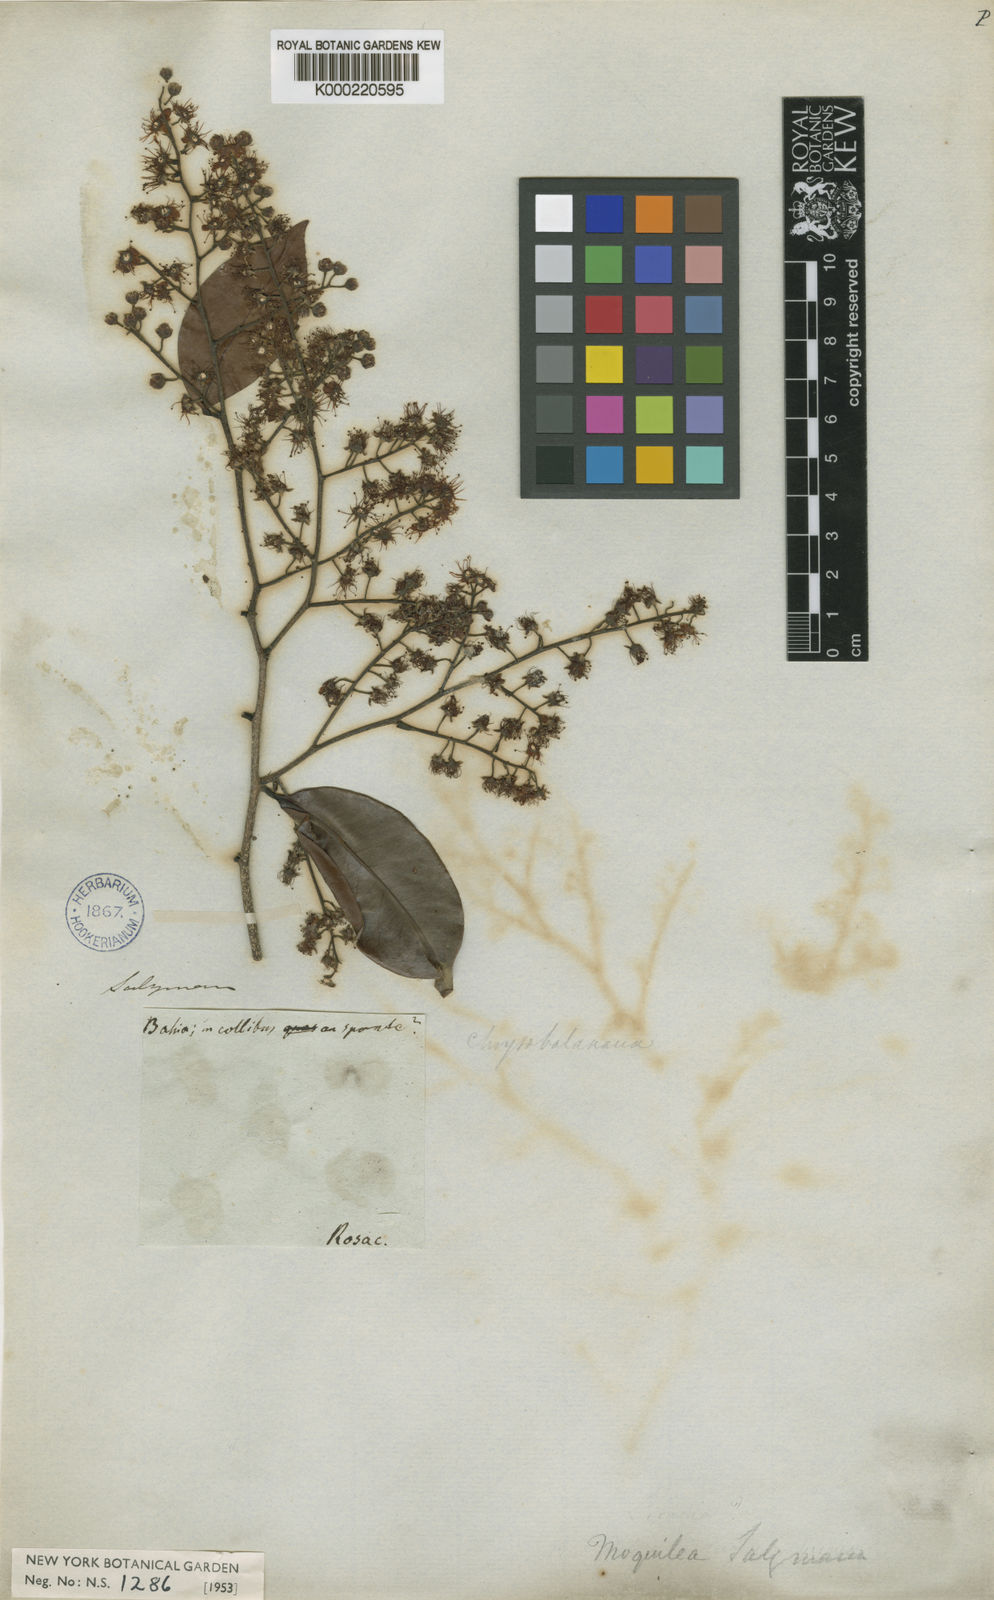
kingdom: Plantae
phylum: Tracheophyta
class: Magnoliopsida
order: Malpighiales
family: Chrysobalanaceae
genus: Moquilea
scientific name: Moquilea salzmannii
